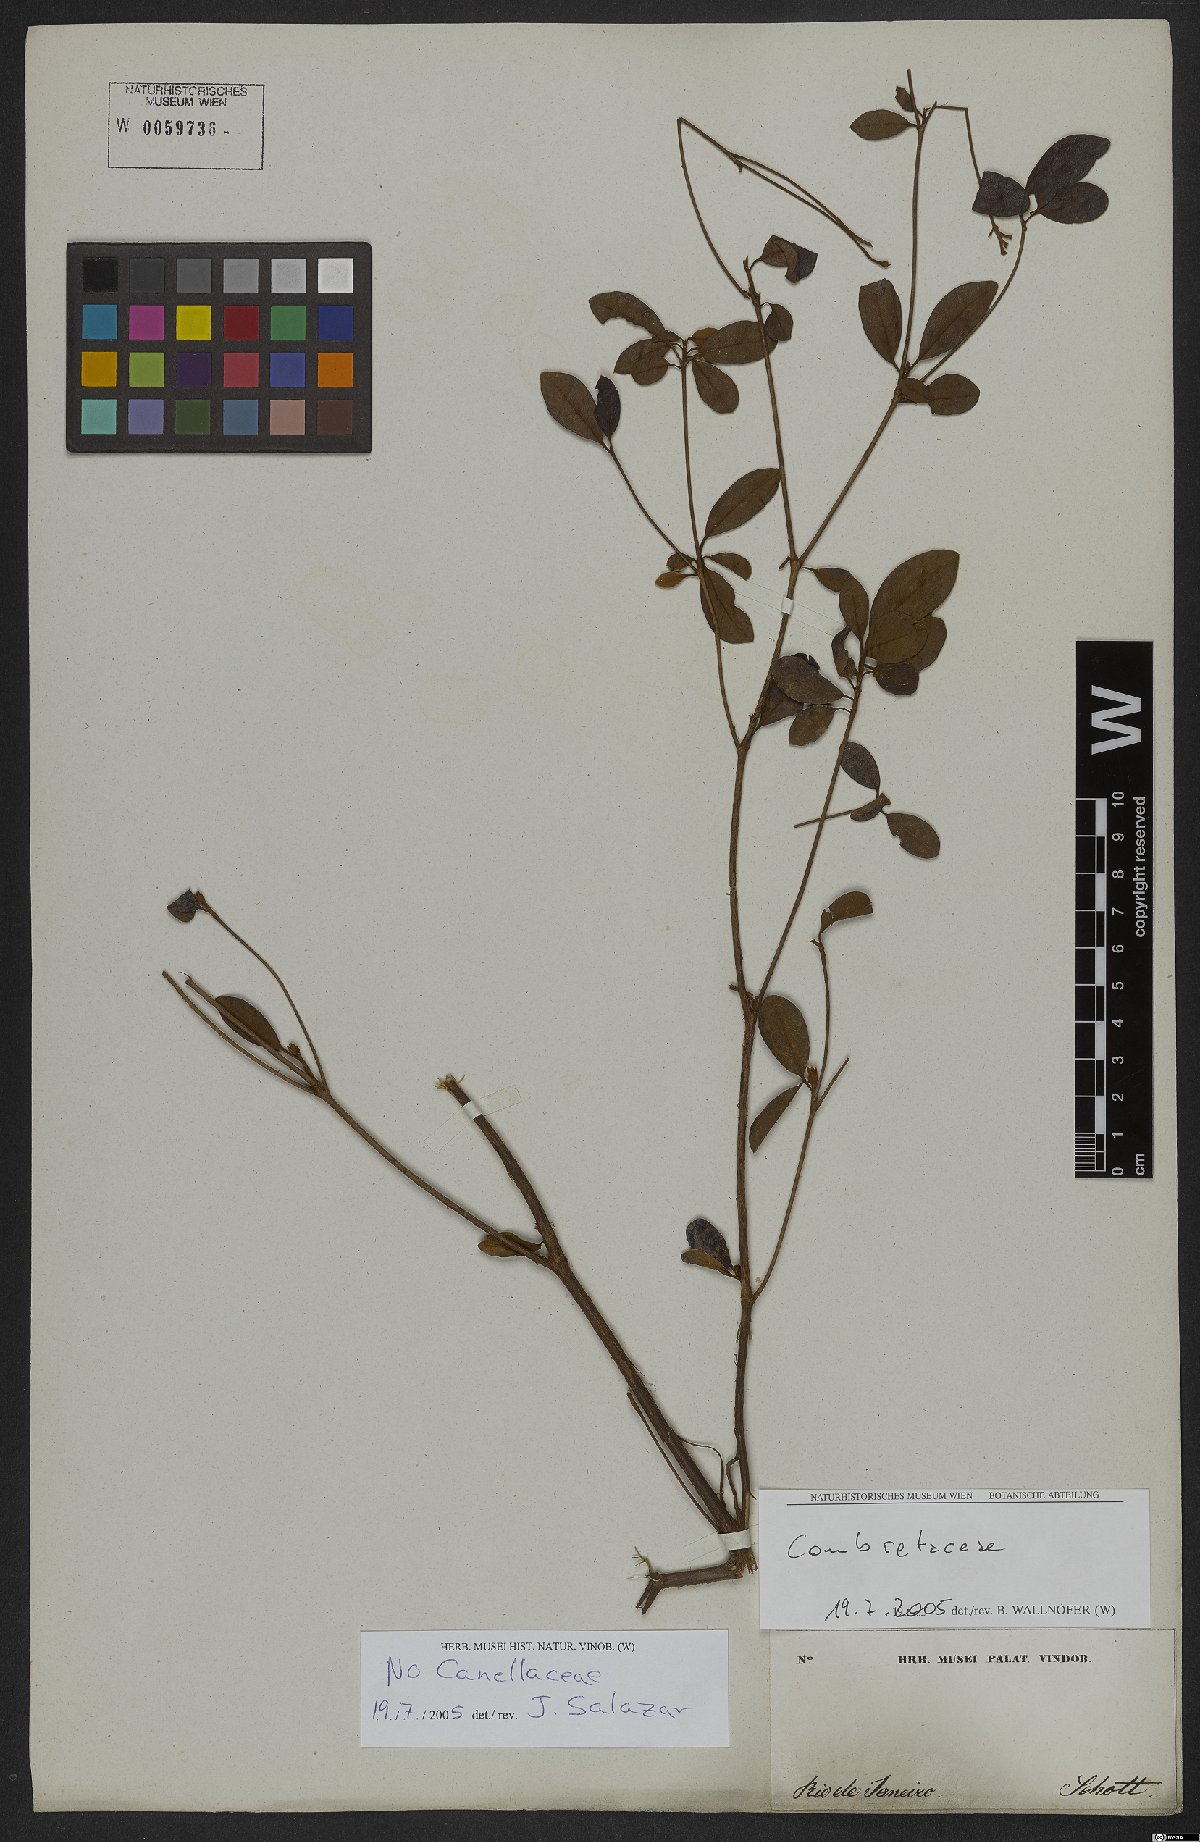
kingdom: Plantae
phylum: Tracheophyta
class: Magnoliopsida
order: Myrtales
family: Combretaceae
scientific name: Combretaceae
